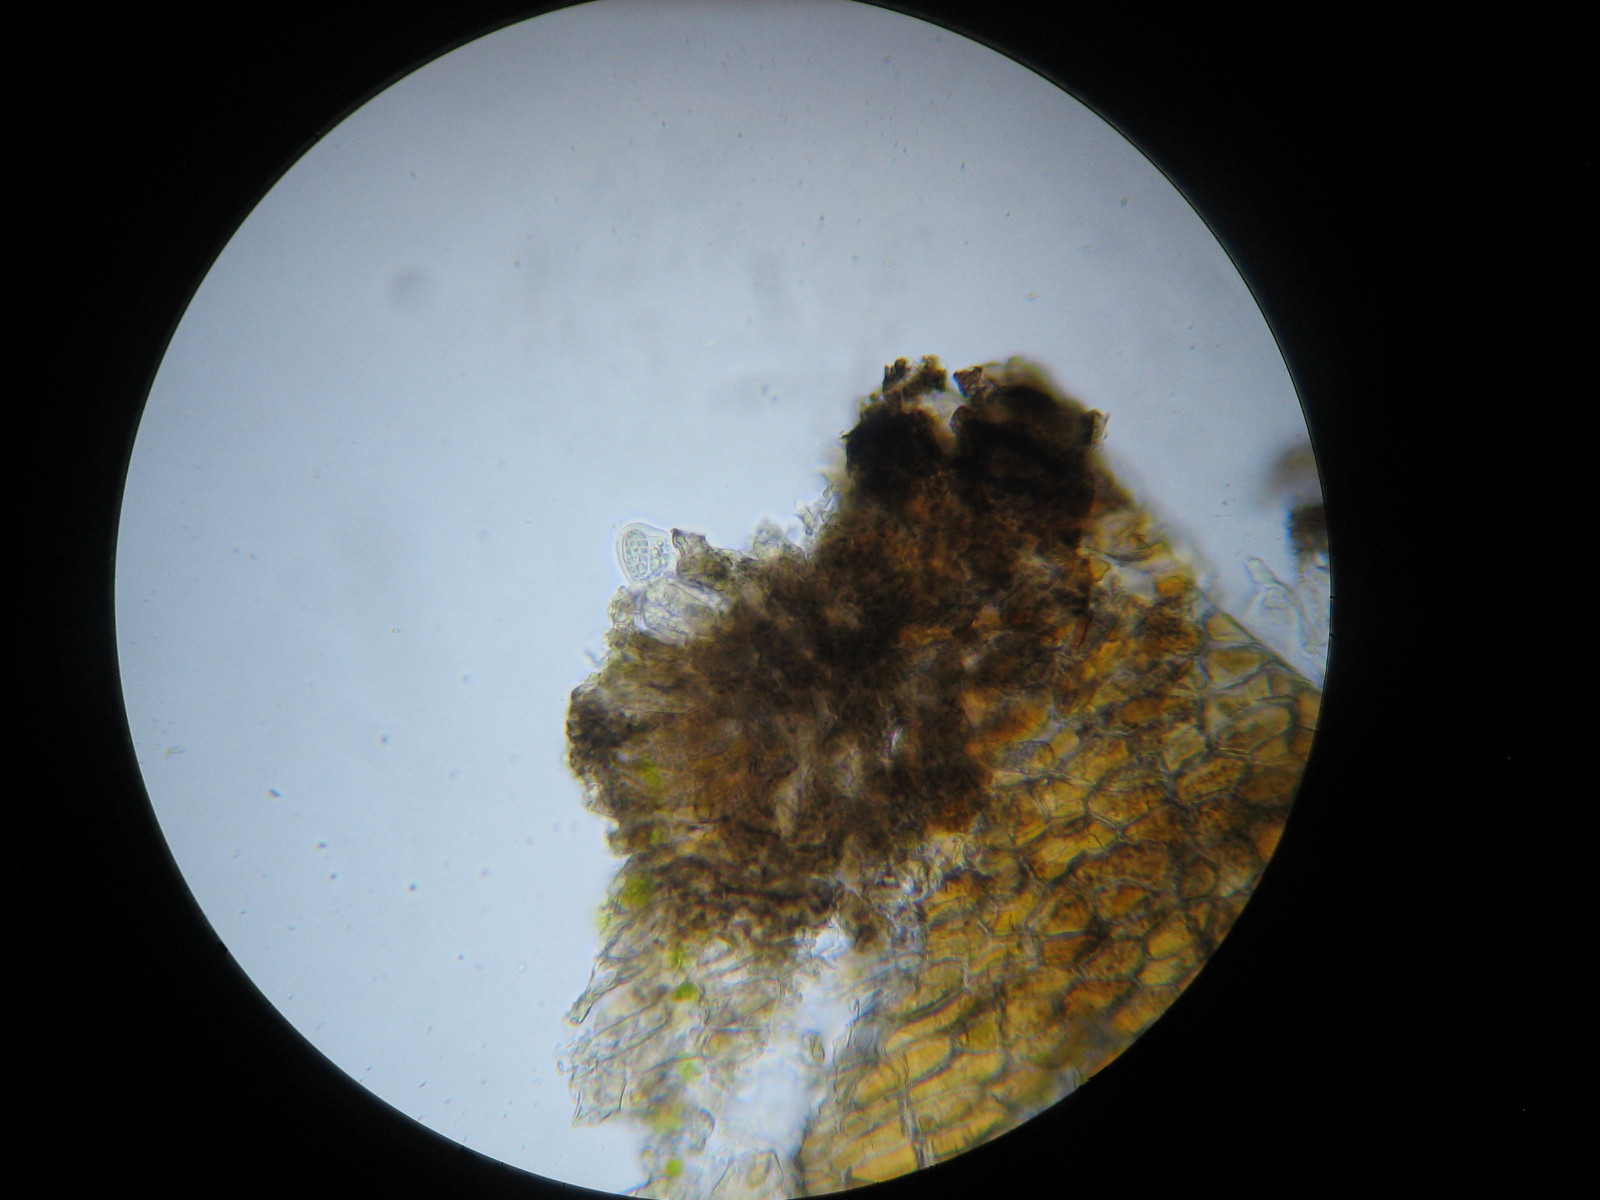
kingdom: Fungi
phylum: Ascomycota
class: Arthoniomycetes
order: Arthoniales
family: Arthoniaceae
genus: Arthothelium
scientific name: Arthothelium ruanum
